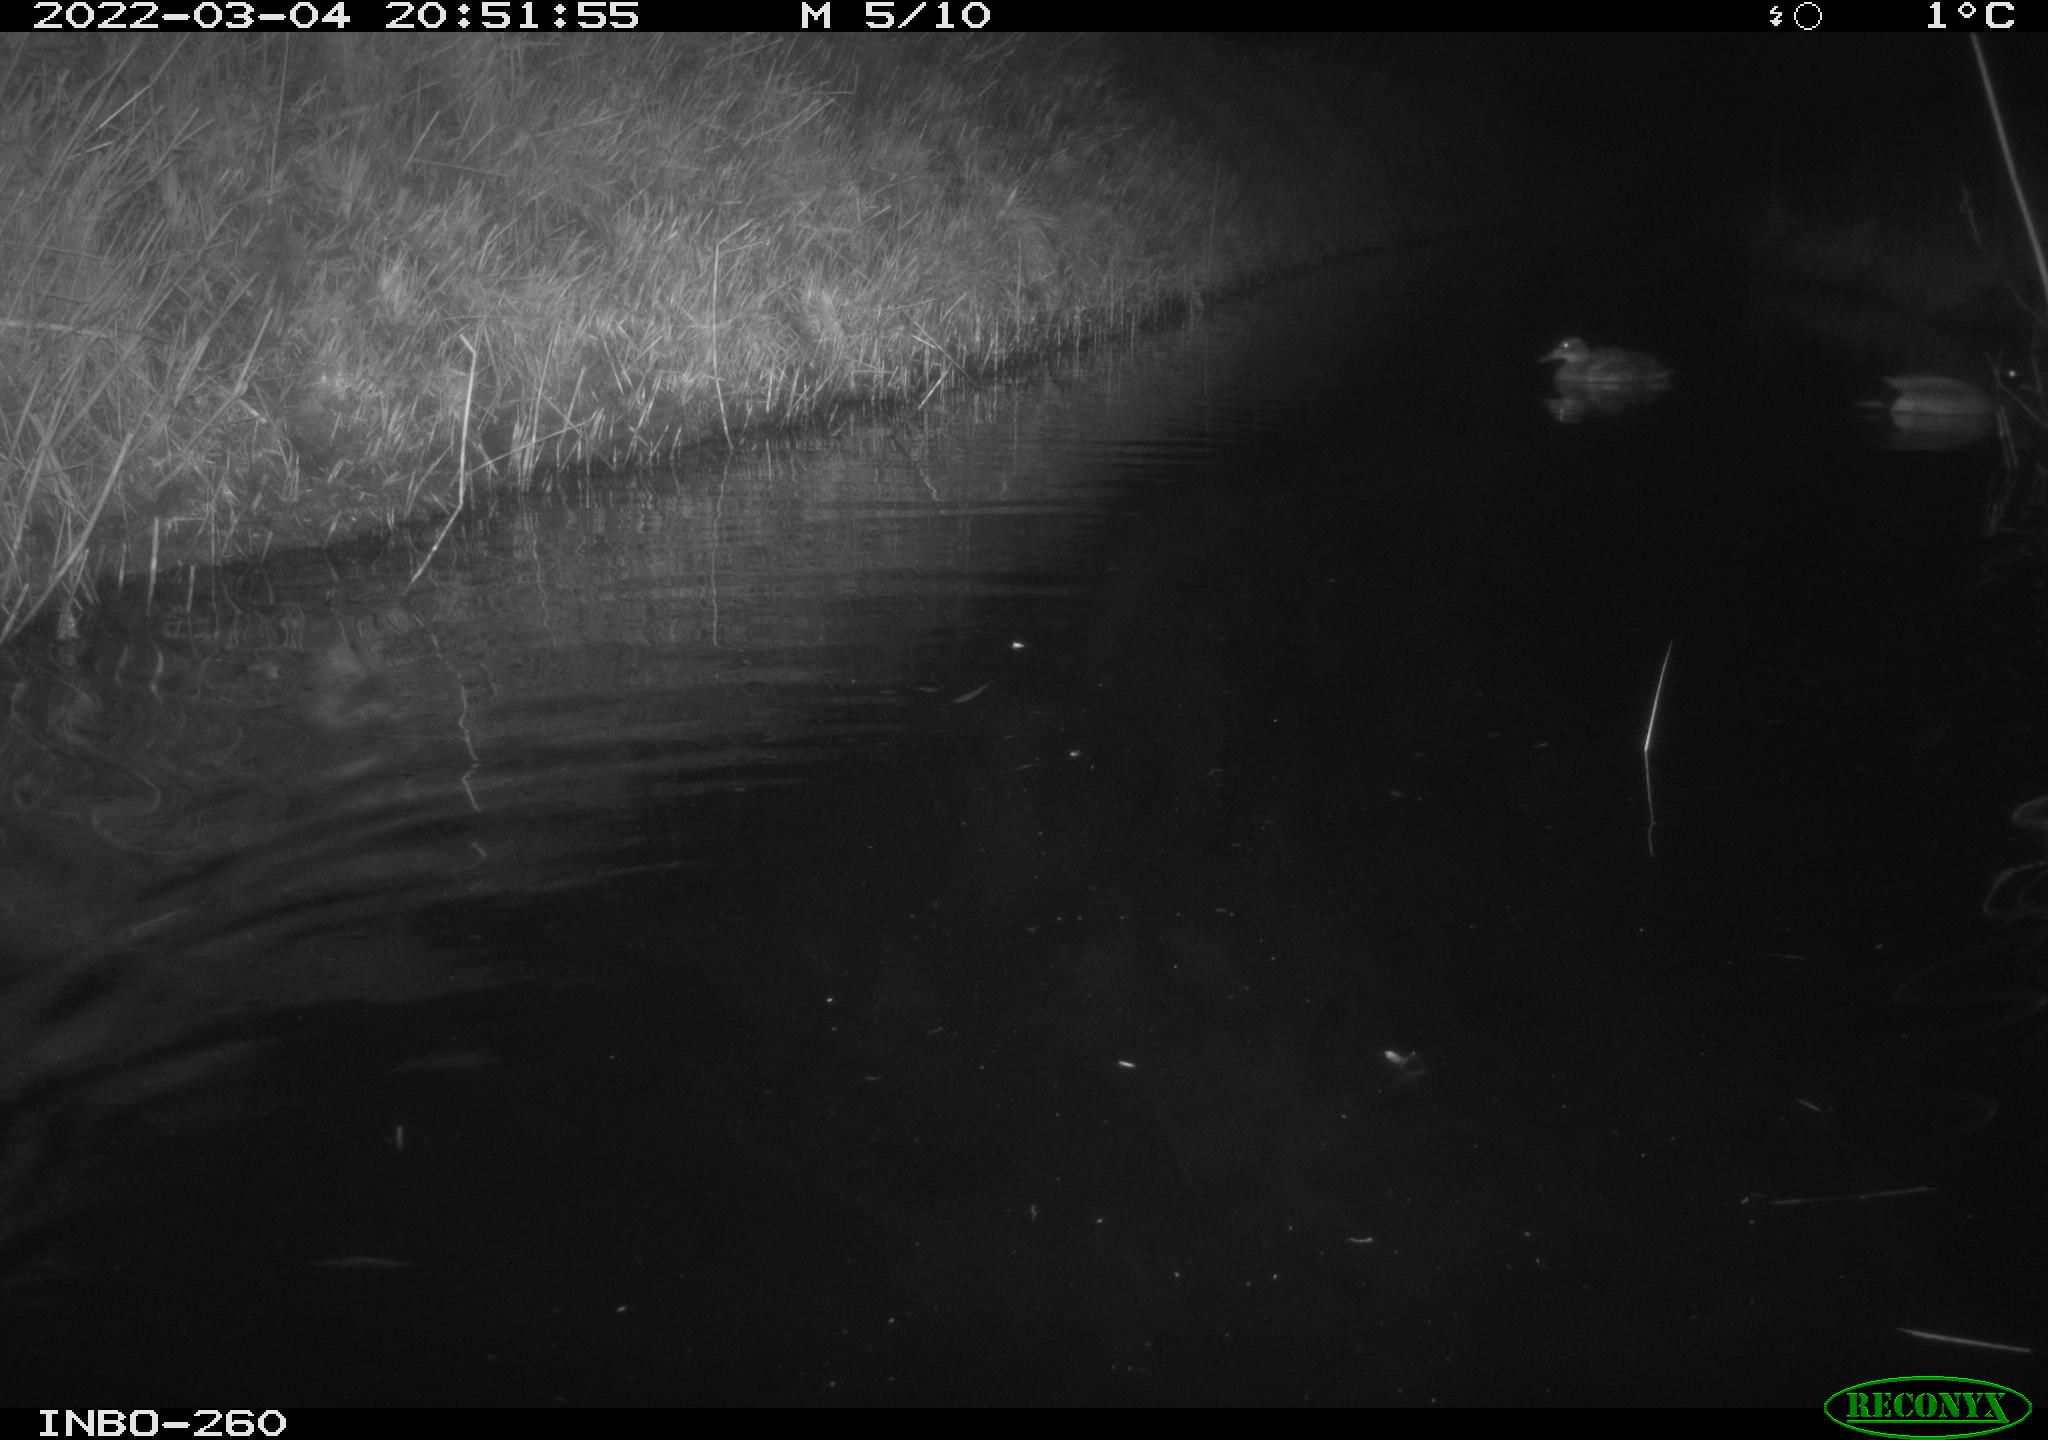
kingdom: Animalia
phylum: Chordata
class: Mammalia
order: Rodentia
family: Cricetidae
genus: Ondatra
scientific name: Ondatra zibethicus
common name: Muskrat
